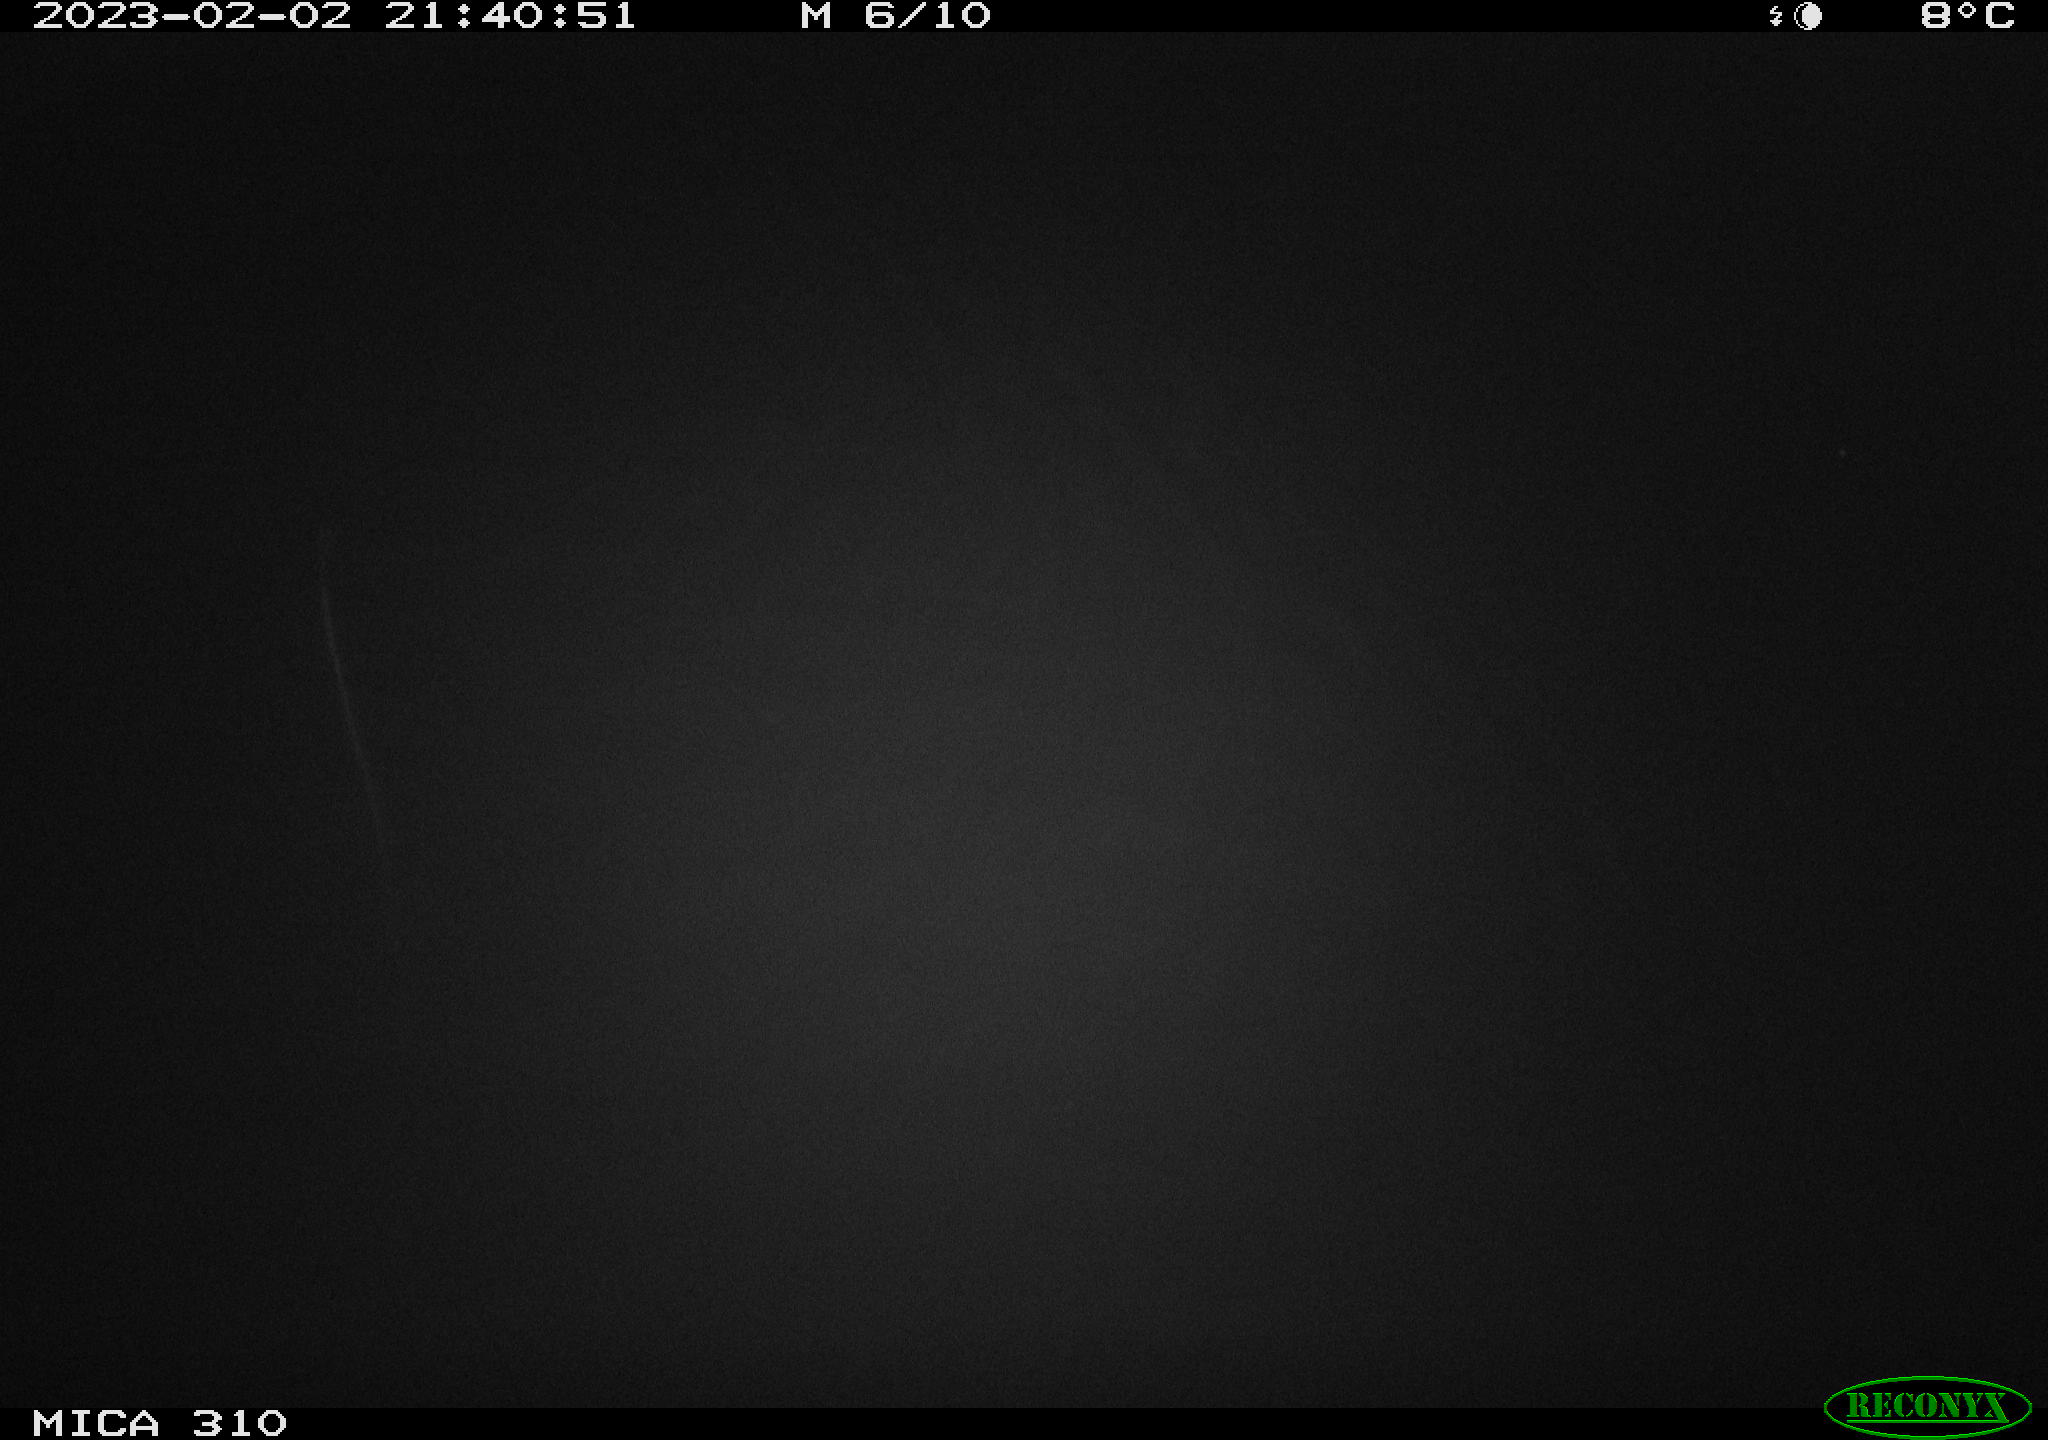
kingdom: Animalia
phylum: Chordata
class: Mammalia
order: Rodentia
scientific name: Rodentia
